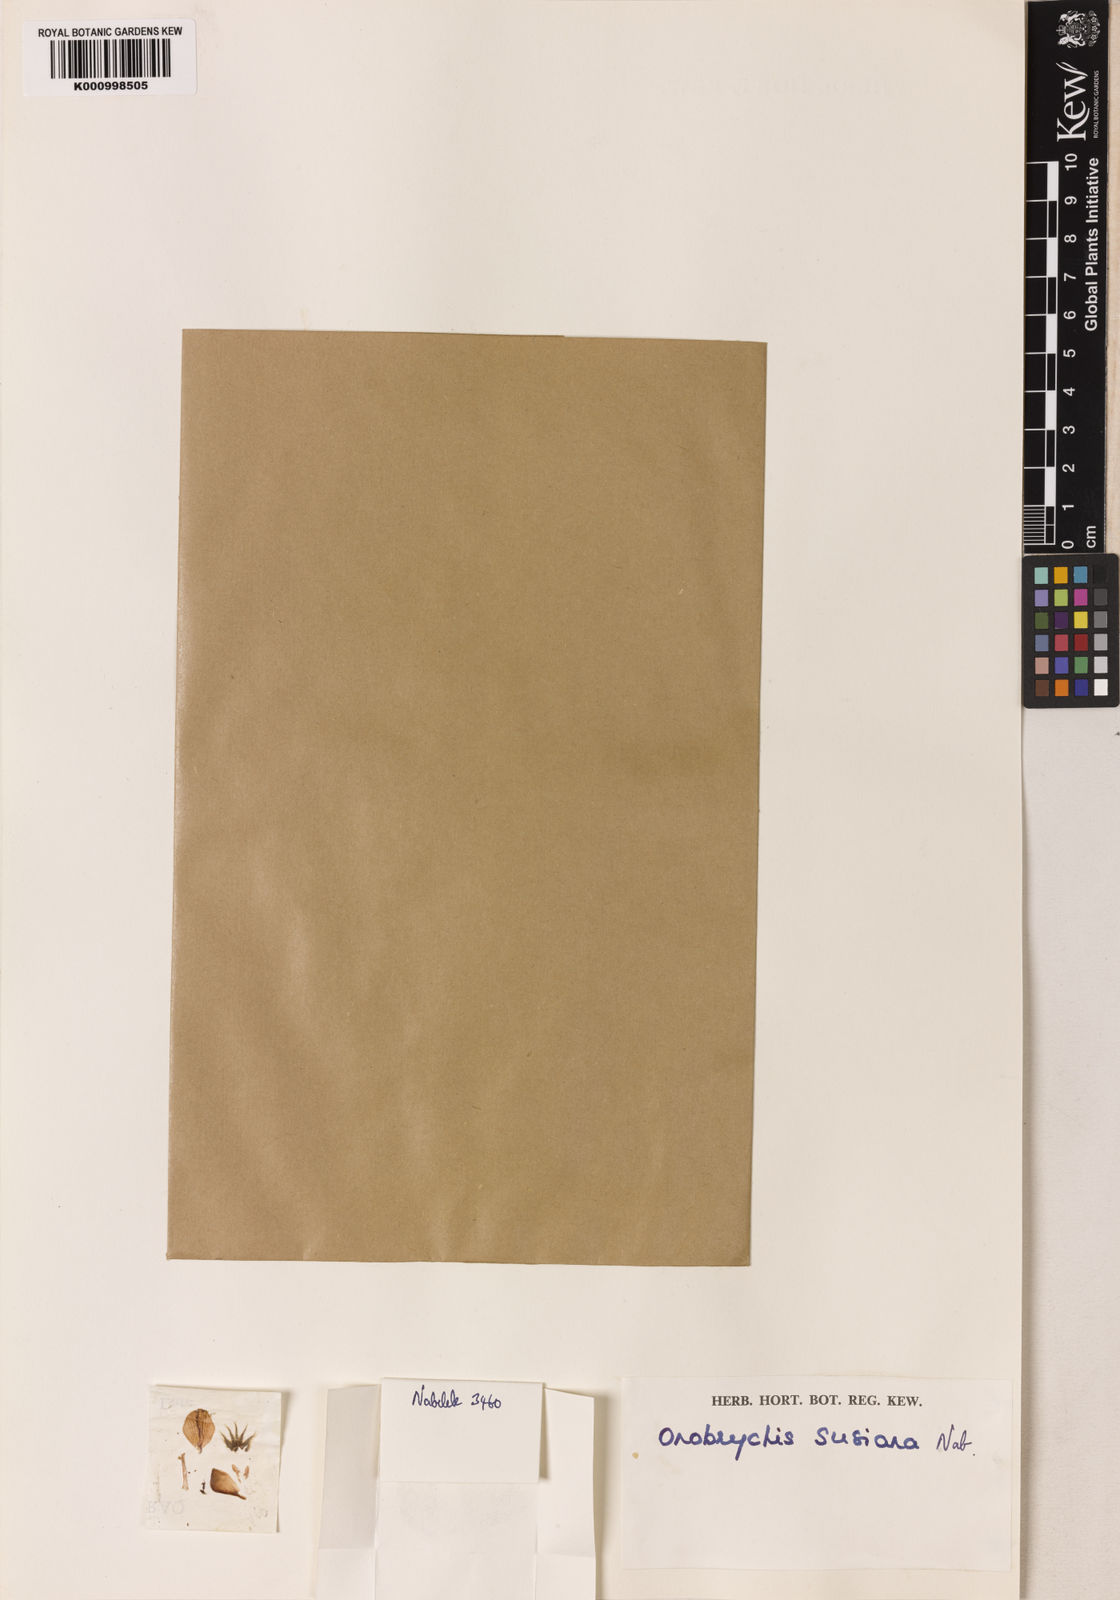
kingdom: Plantae
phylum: Tracheophyta
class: Magnoliopsida
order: Fabales
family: Fabaceae
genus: Onobrychis
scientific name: Onobrychis
